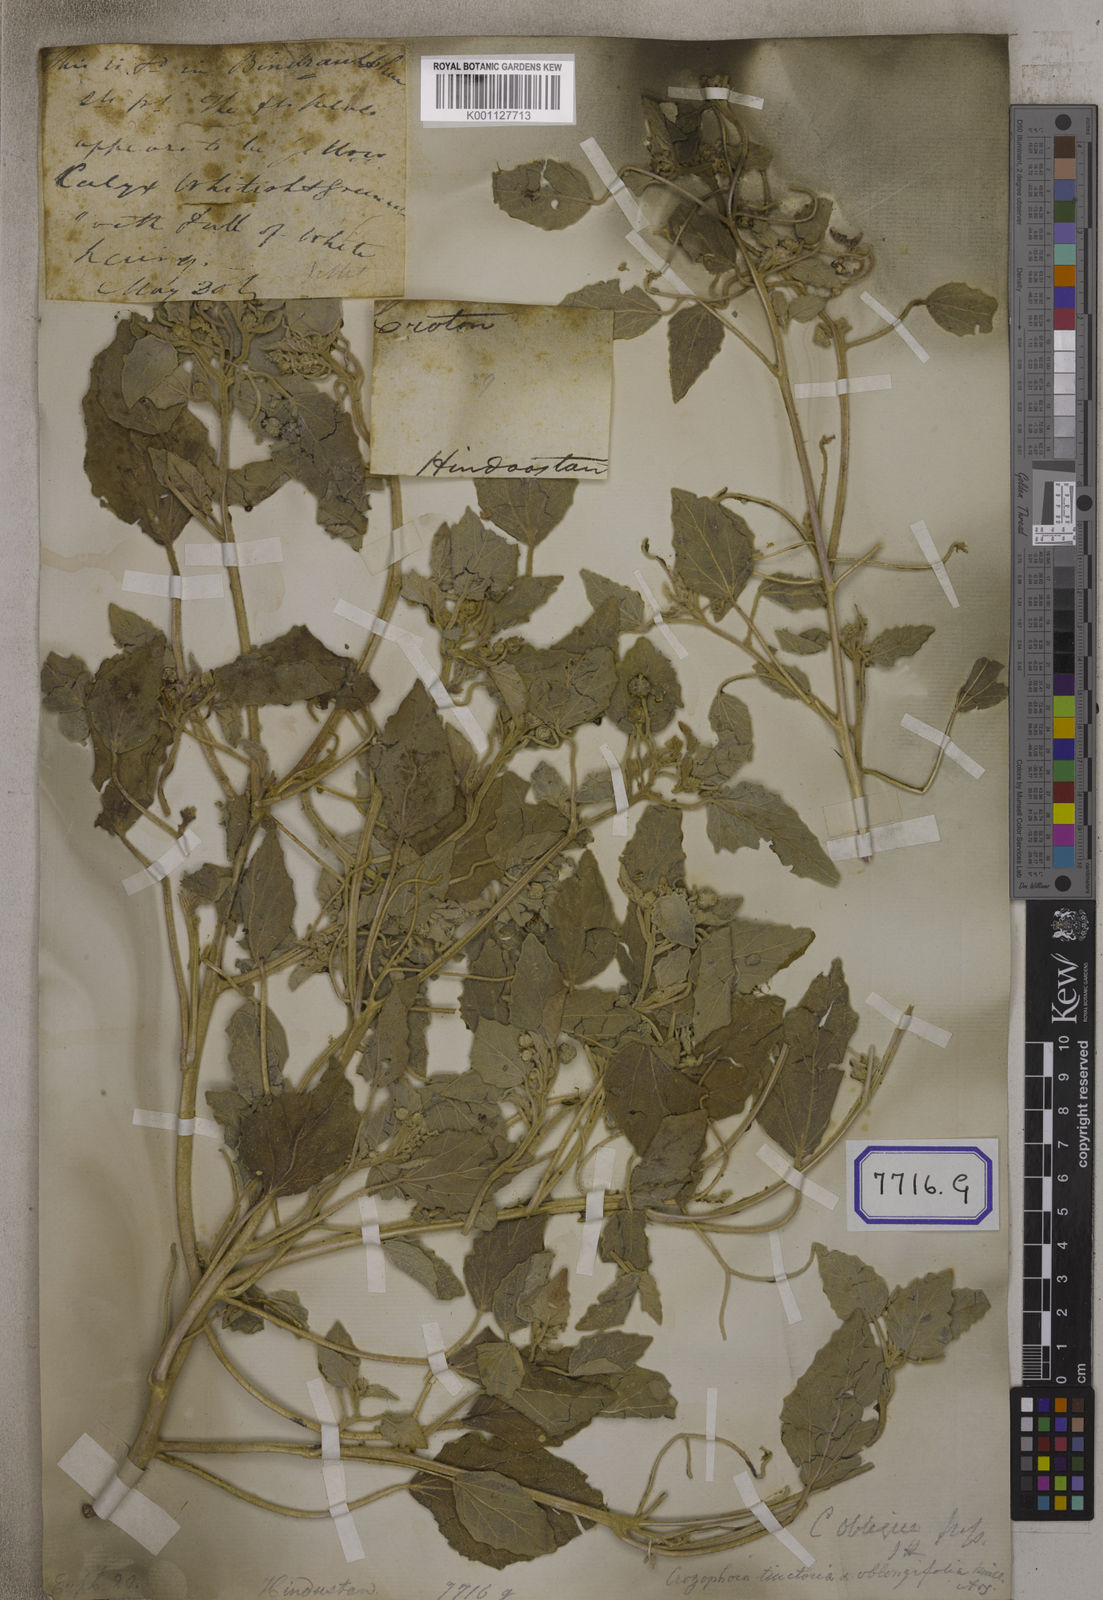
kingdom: Plantae
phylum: Tracheophyta
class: Magnoliopsida
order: Malpighiales
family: Euphorbiaceae
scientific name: Euphorbiaceae
